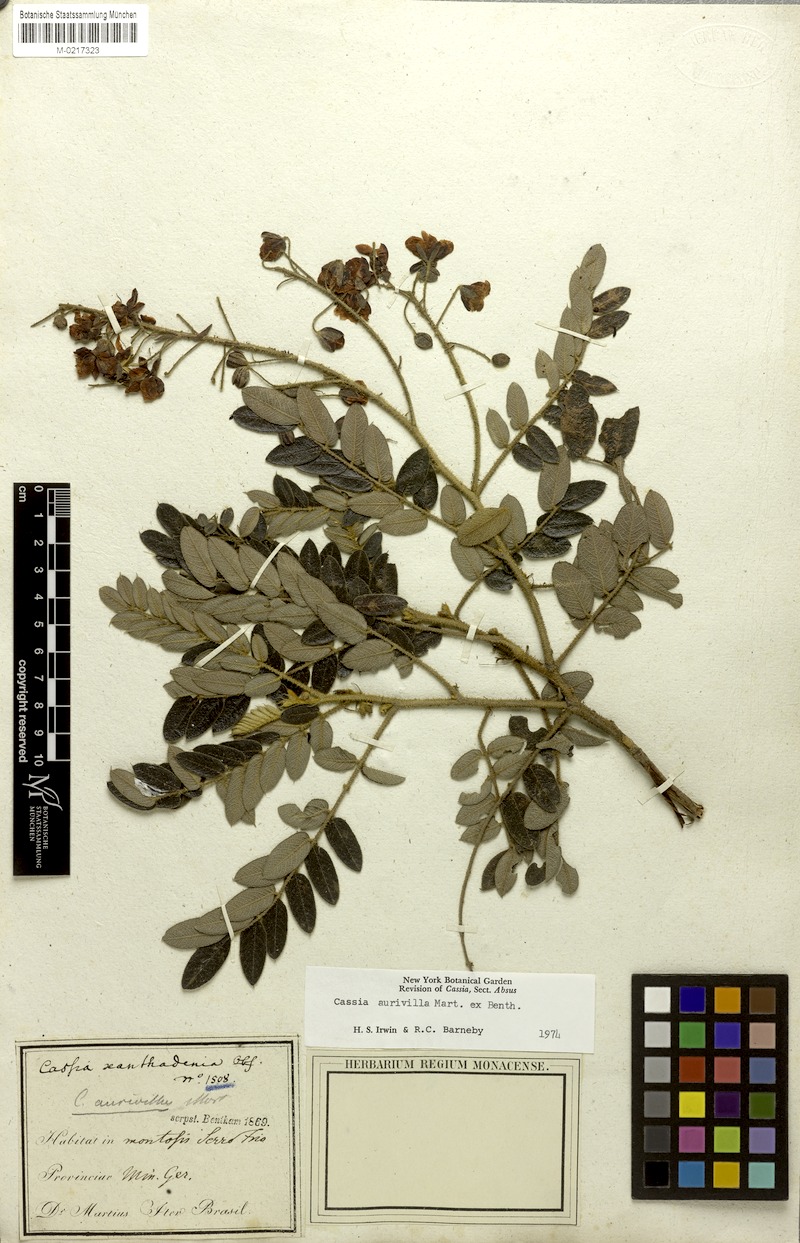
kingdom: Plantae
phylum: Tracheophyta
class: Magnoliopsida
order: Fabales
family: Fabaceae
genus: Chamaecrista
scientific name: Chamaecrista aurivilla
